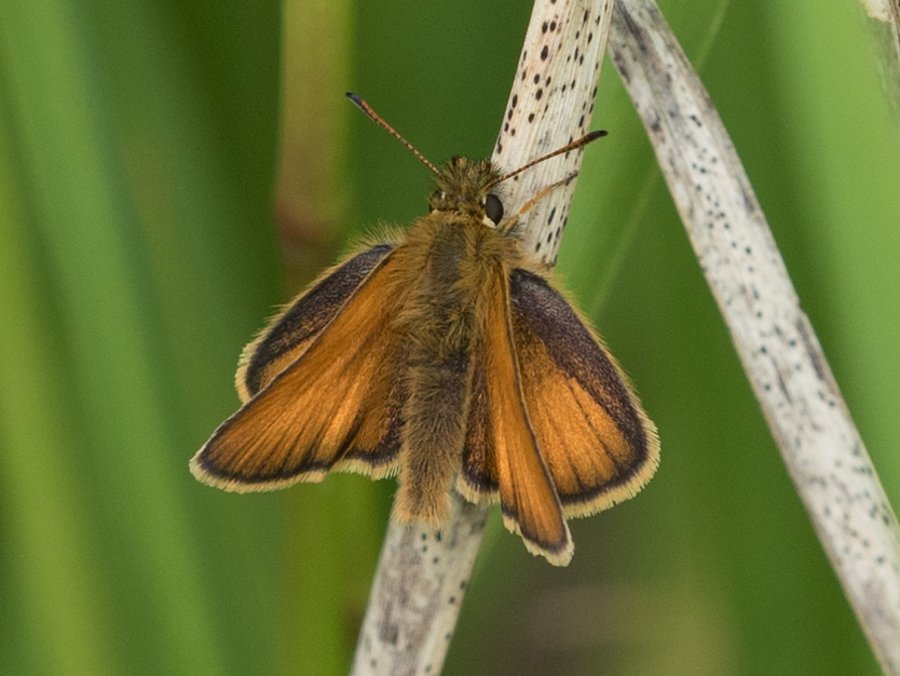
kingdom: Animalia
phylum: Arthropoda
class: Insecta
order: Lepidoptera
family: Hesperiidae
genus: Thymelicus
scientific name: Thymelicus lineola
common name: European Skipper
